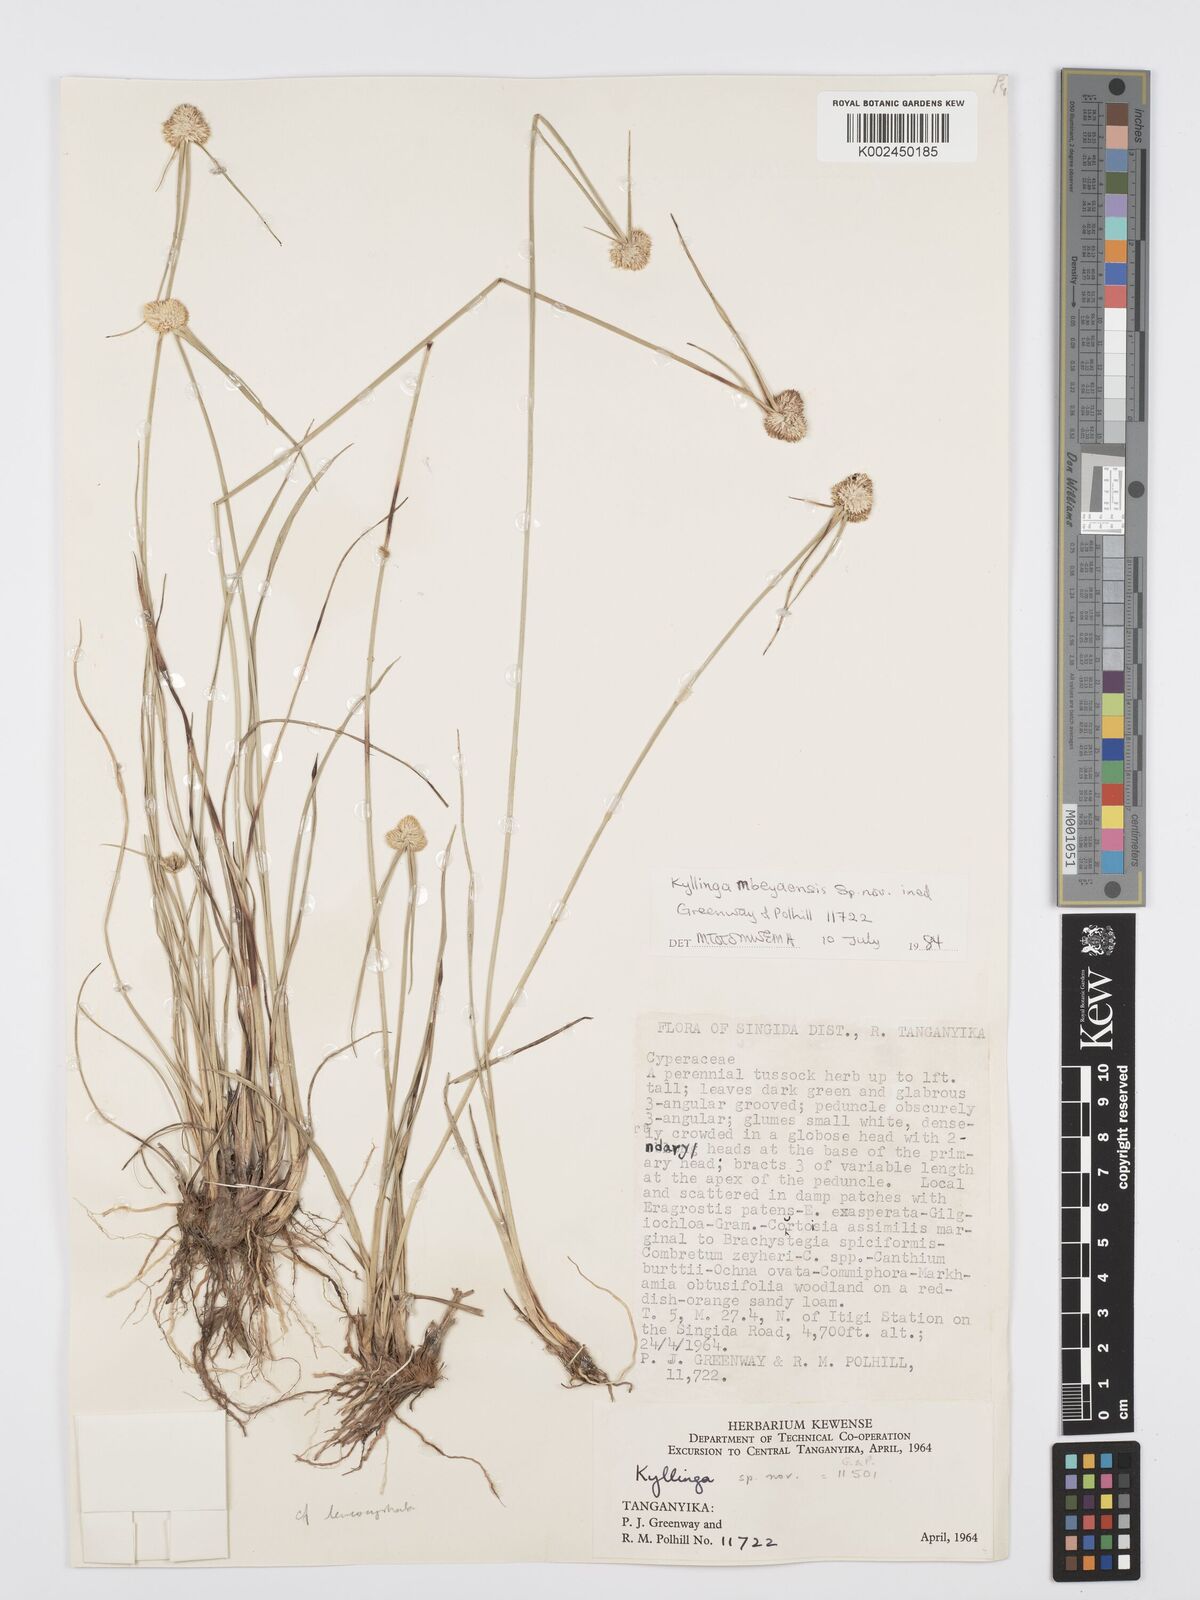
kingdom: Plantae
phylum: Tracheophyta
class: Liliopsida
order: Poales
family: Cyperaceae
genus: Cyperus
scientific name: Cyperus
